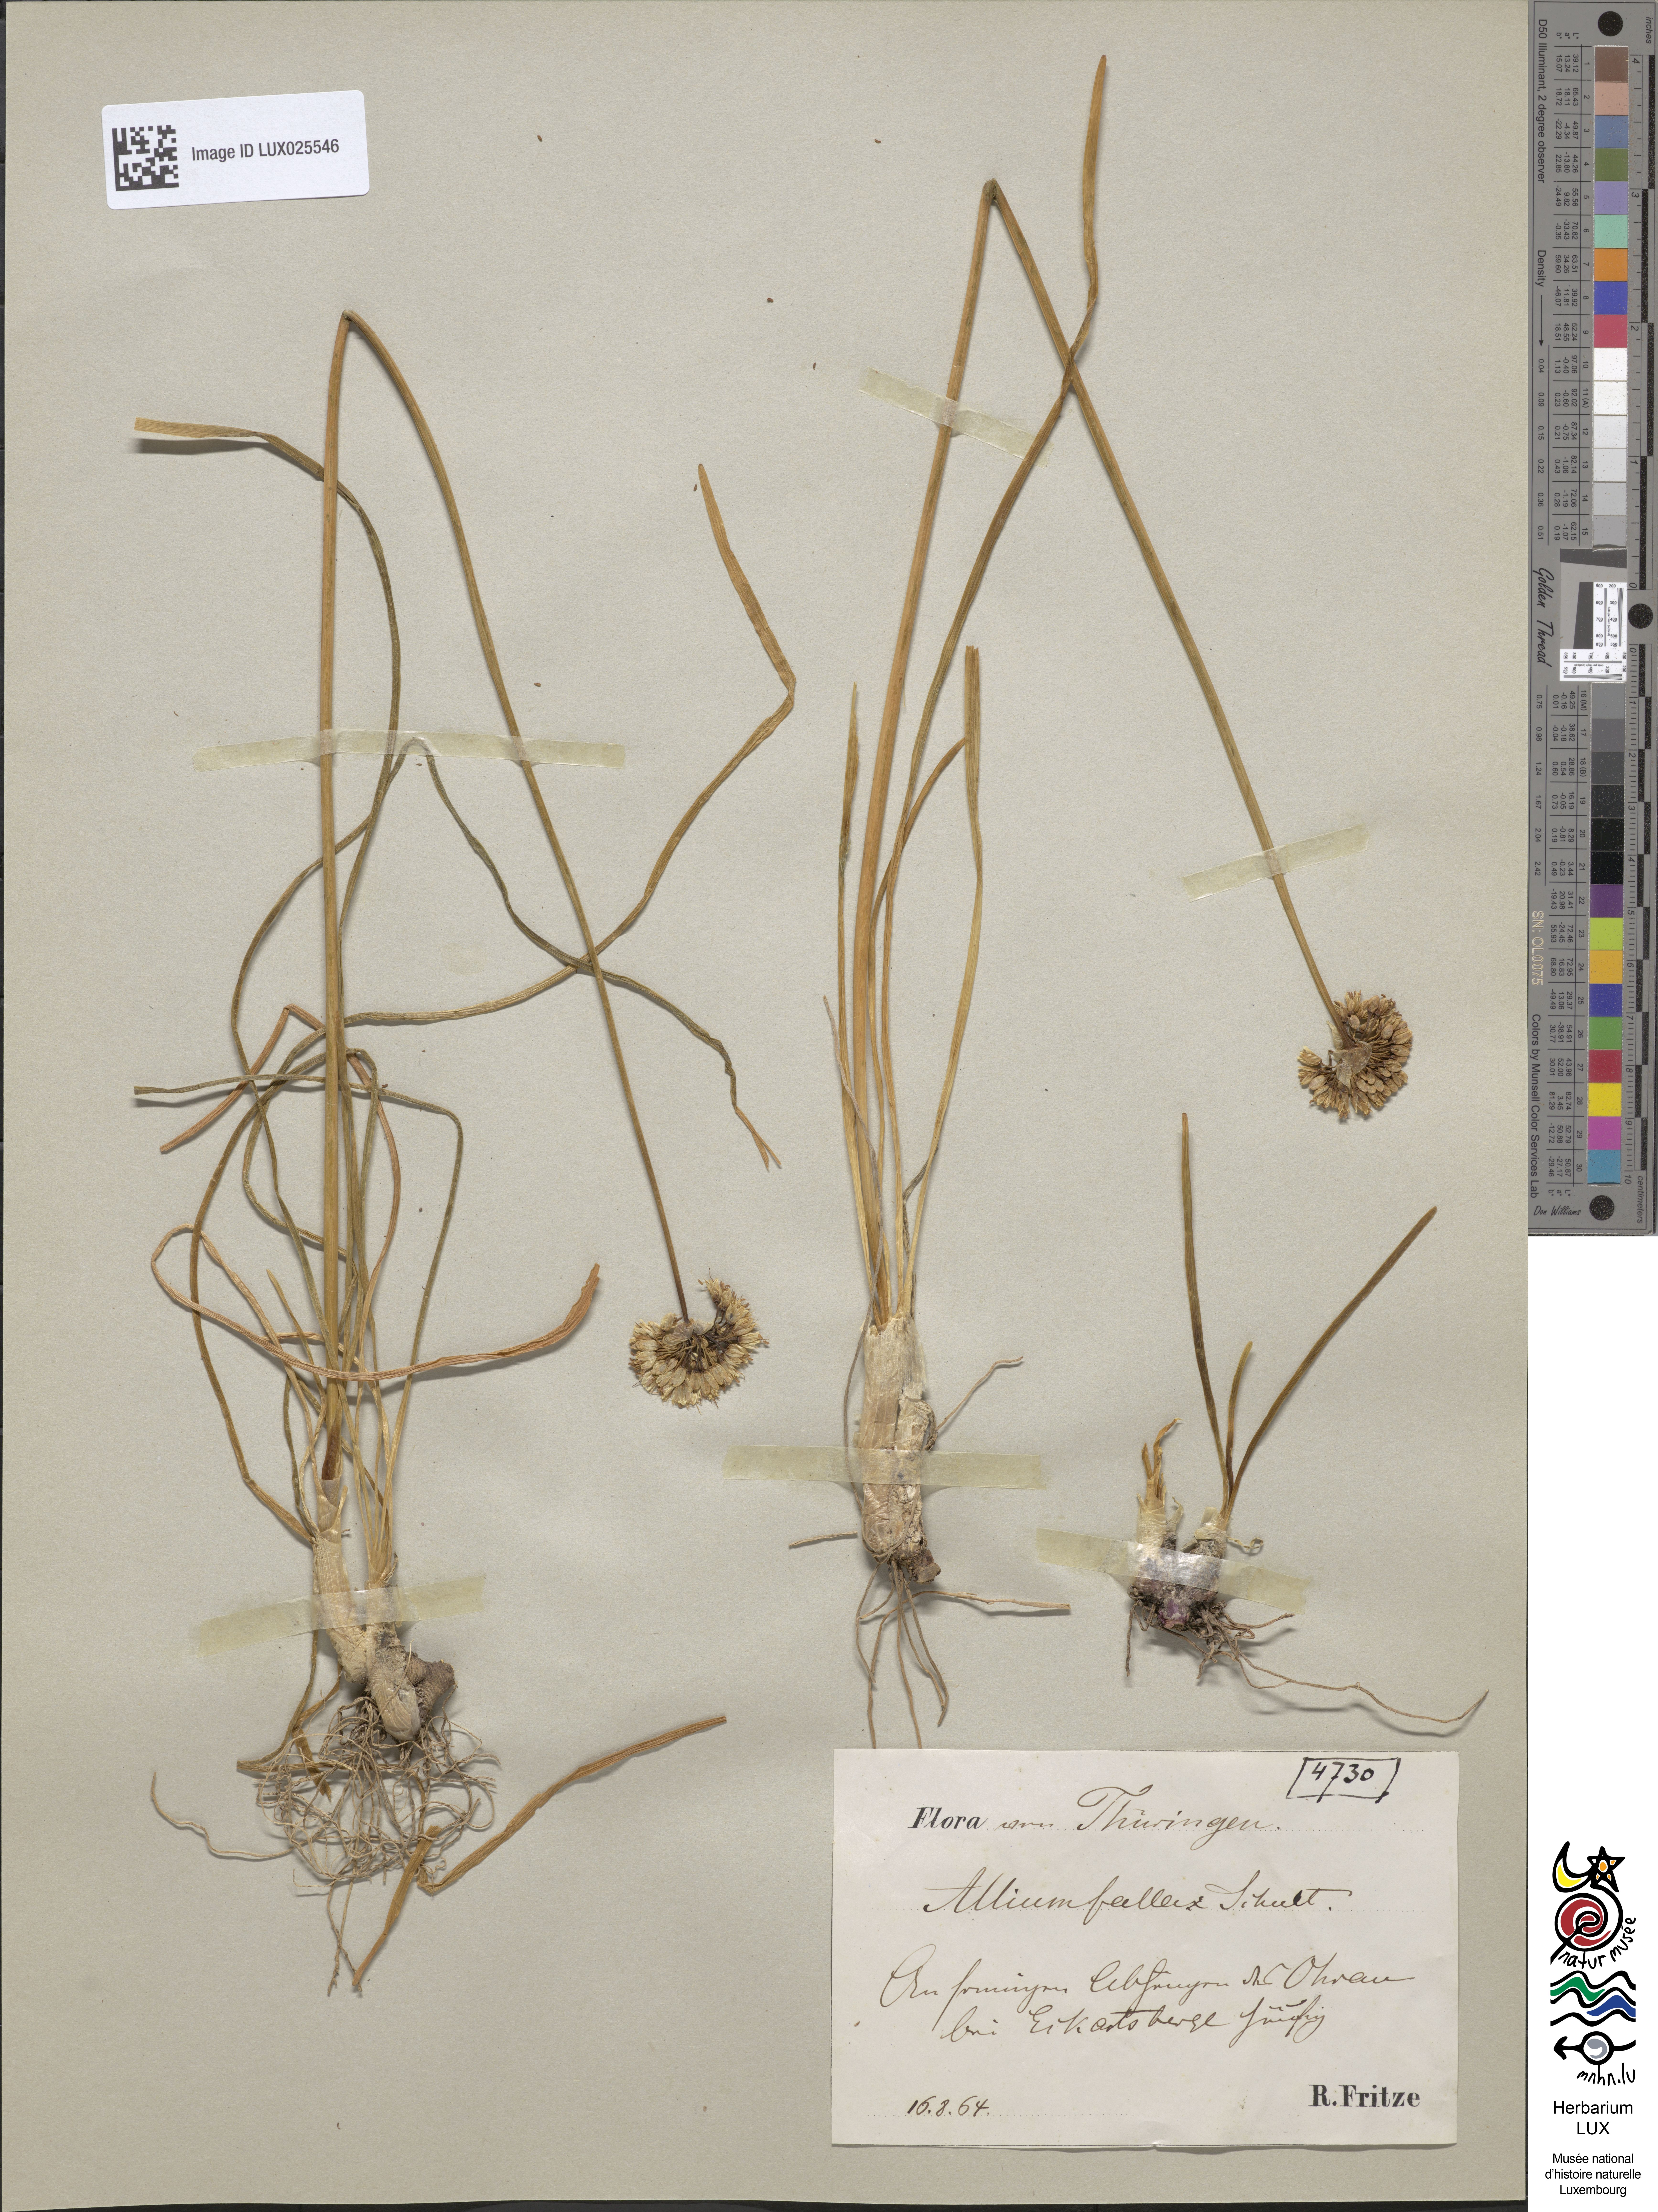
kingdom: Plantae
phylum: Tracheophyta
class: Liliopsida
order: Asparagales
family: Amaryllidaceae
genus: Allium
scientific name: Allium lusitanicum
